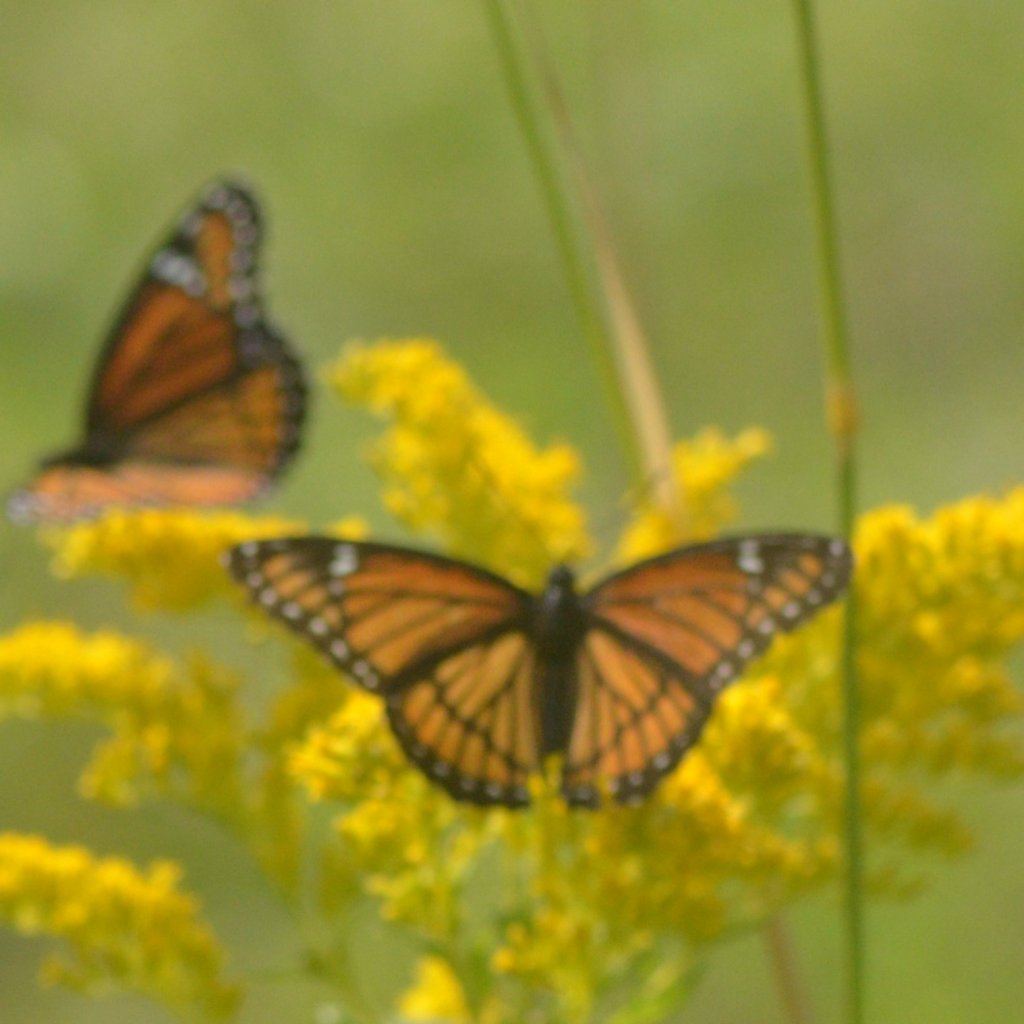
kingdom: Animalia
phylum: Arthropoda
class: Insecta
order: Lepidoptera
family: Nymphalidae
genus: Limenitis
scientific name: Limenitis archippus
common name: Viceroy
